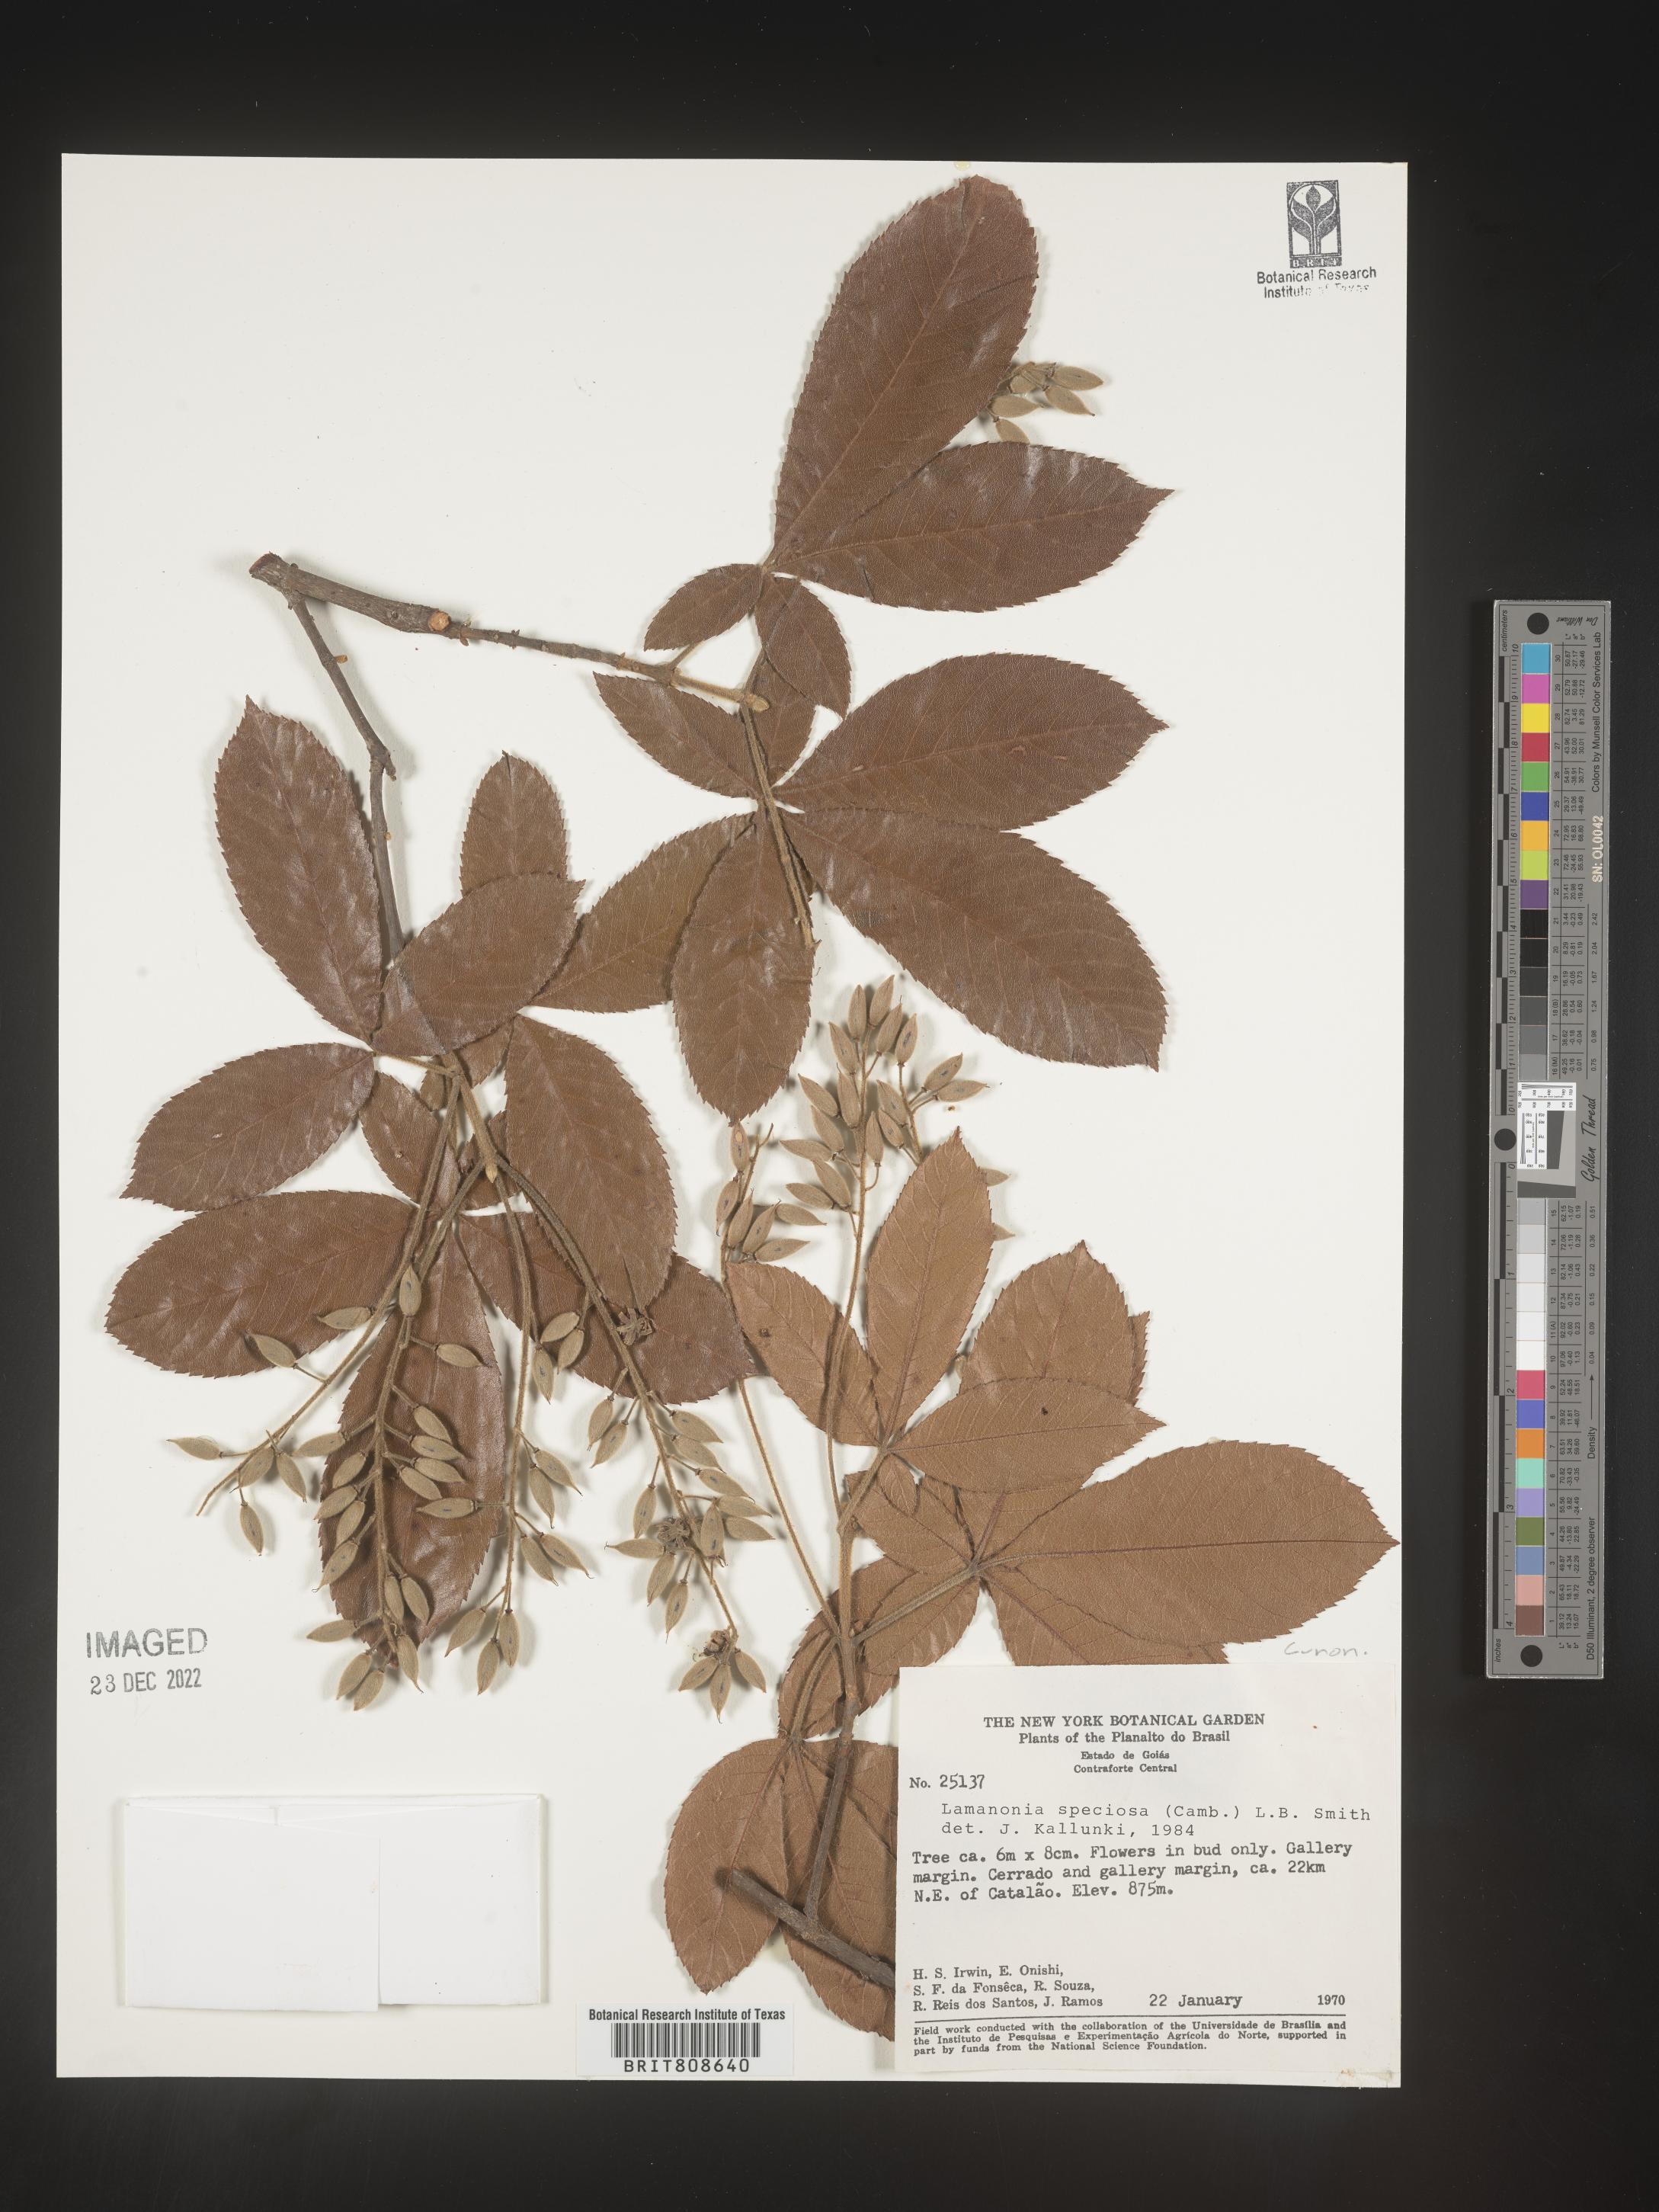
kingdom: Plantae
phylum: Tracheophyta
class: Magnoliopsida
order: Oxalidales
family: Cunoniaceae
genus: Lamanonia
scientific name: Lamanonia
